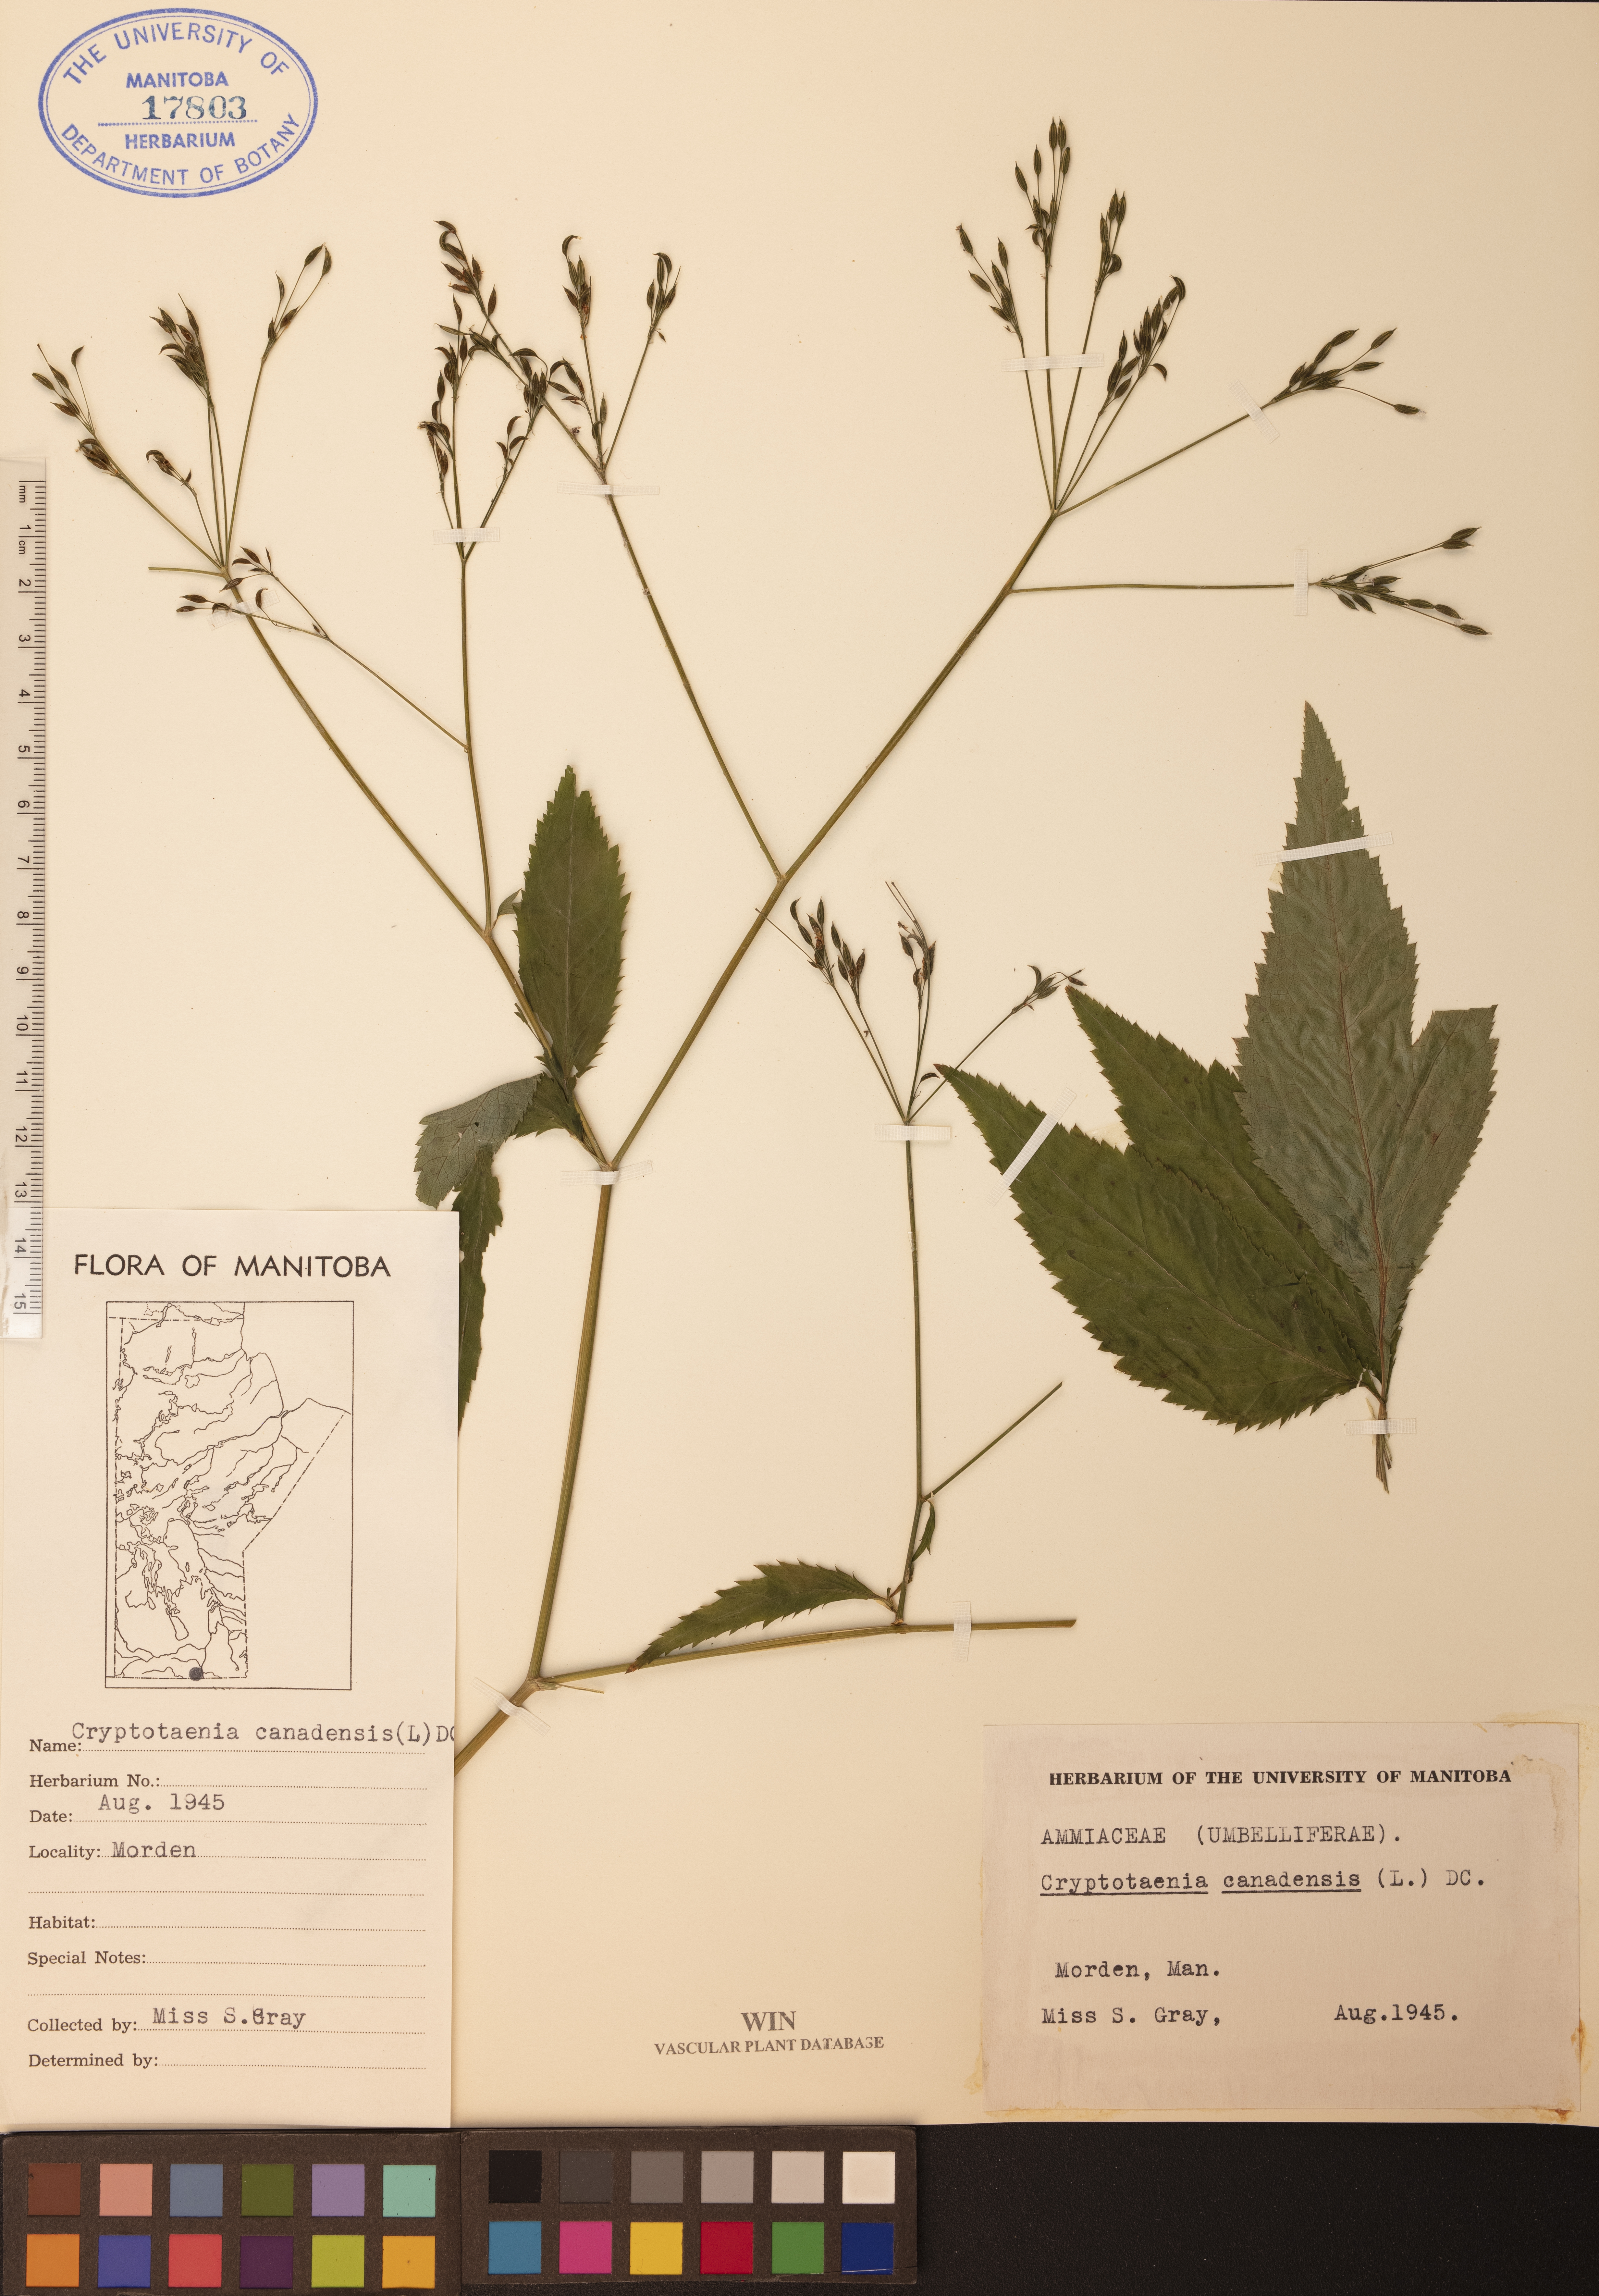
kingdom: Plantae
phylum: Tracheophyta
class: Magnoliopsida
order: Apiales
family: Apiaceae
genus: Cryptotaenia
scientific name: Cryptotaenia canadensis
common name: Honewort
